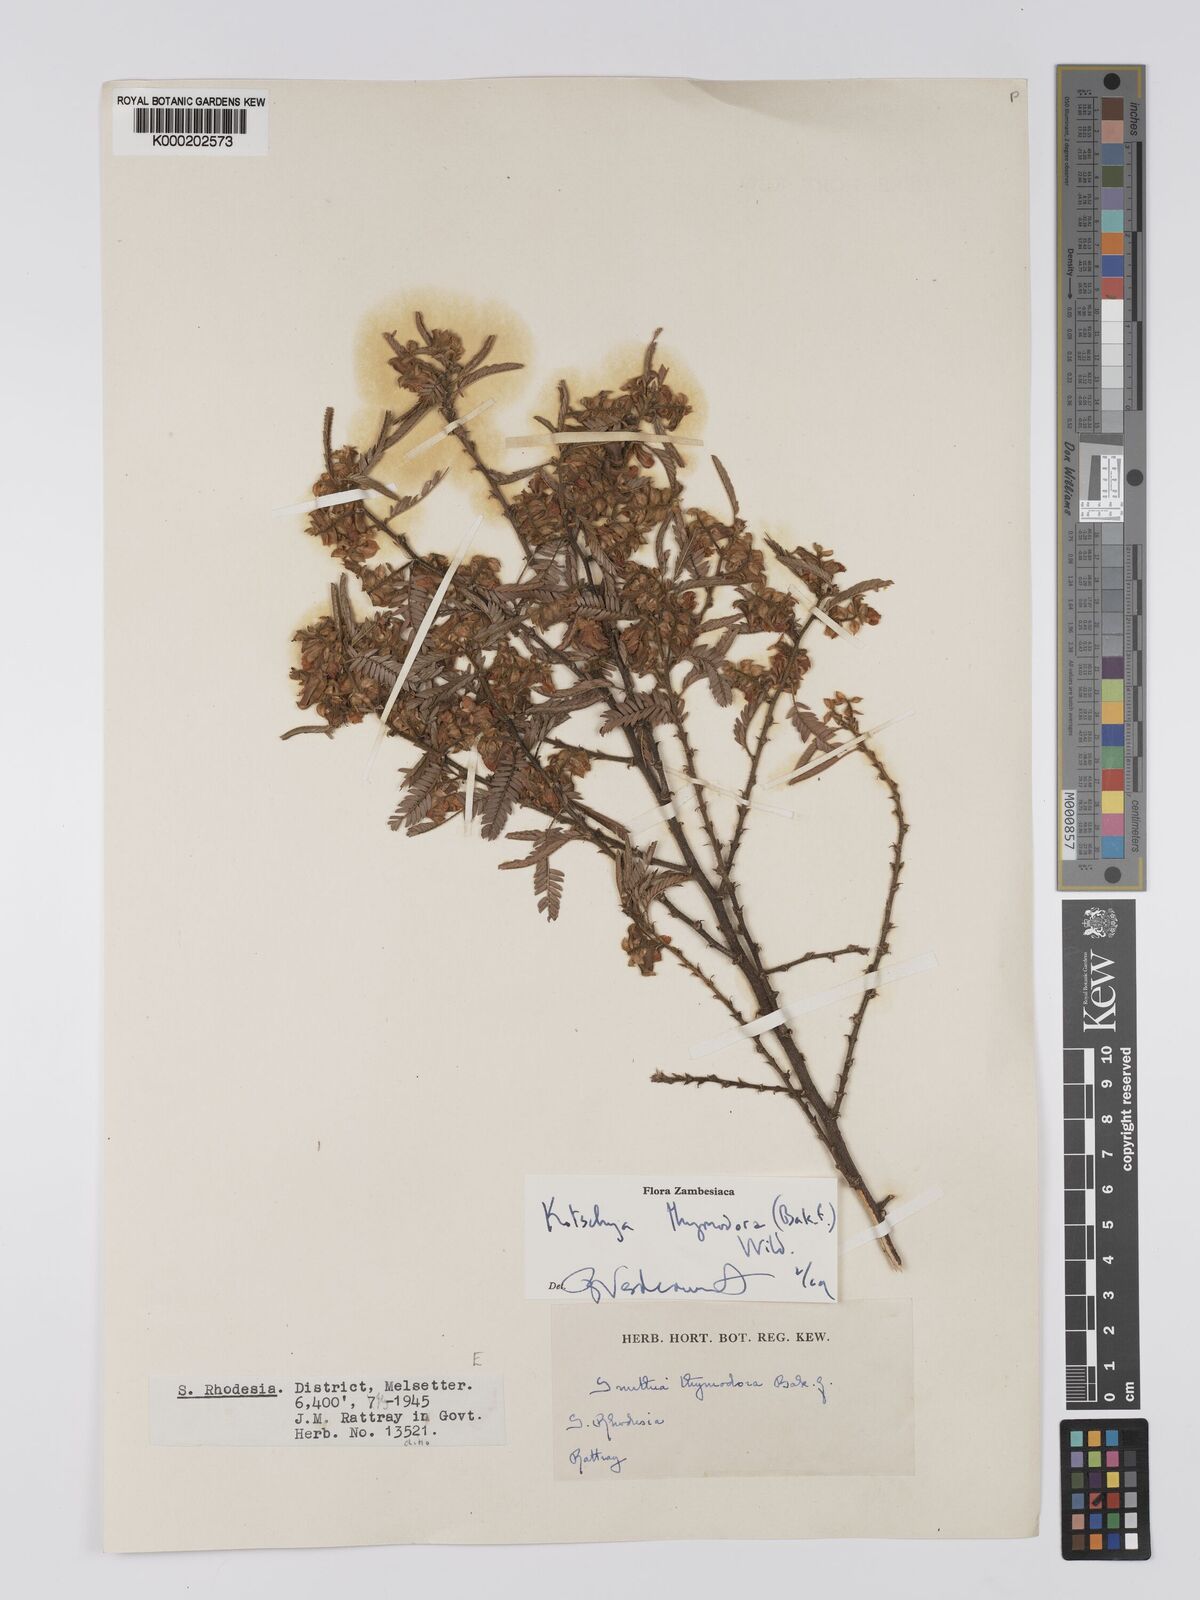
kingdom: Plantae
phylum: Tracheophyta
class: Magnoliopsida
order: Fabales
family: Fabaceae
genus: Kotschya
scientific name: Kotschya thymodora
